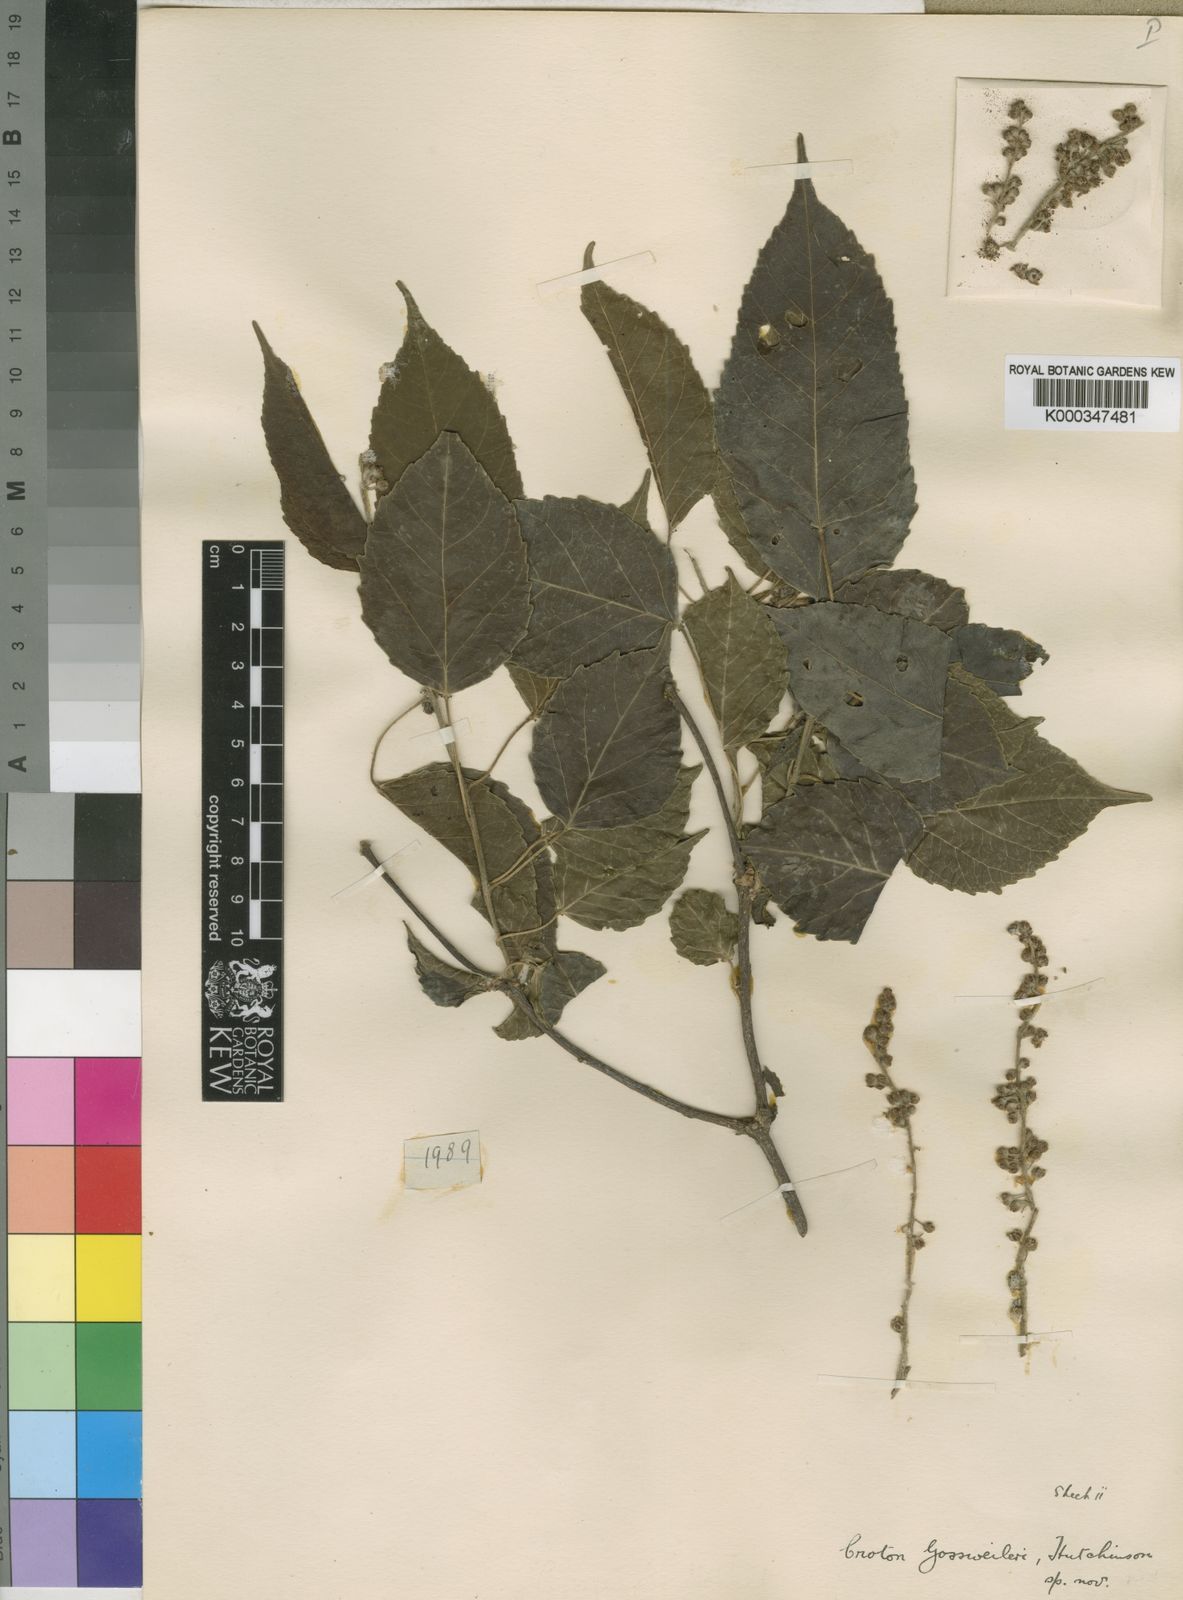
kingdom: Plantae
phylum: Tracheophyta
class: Magnoliopsida
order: Malpighiales
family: Euphorbiaceae
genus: Croton
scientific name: Croton gossweileri
